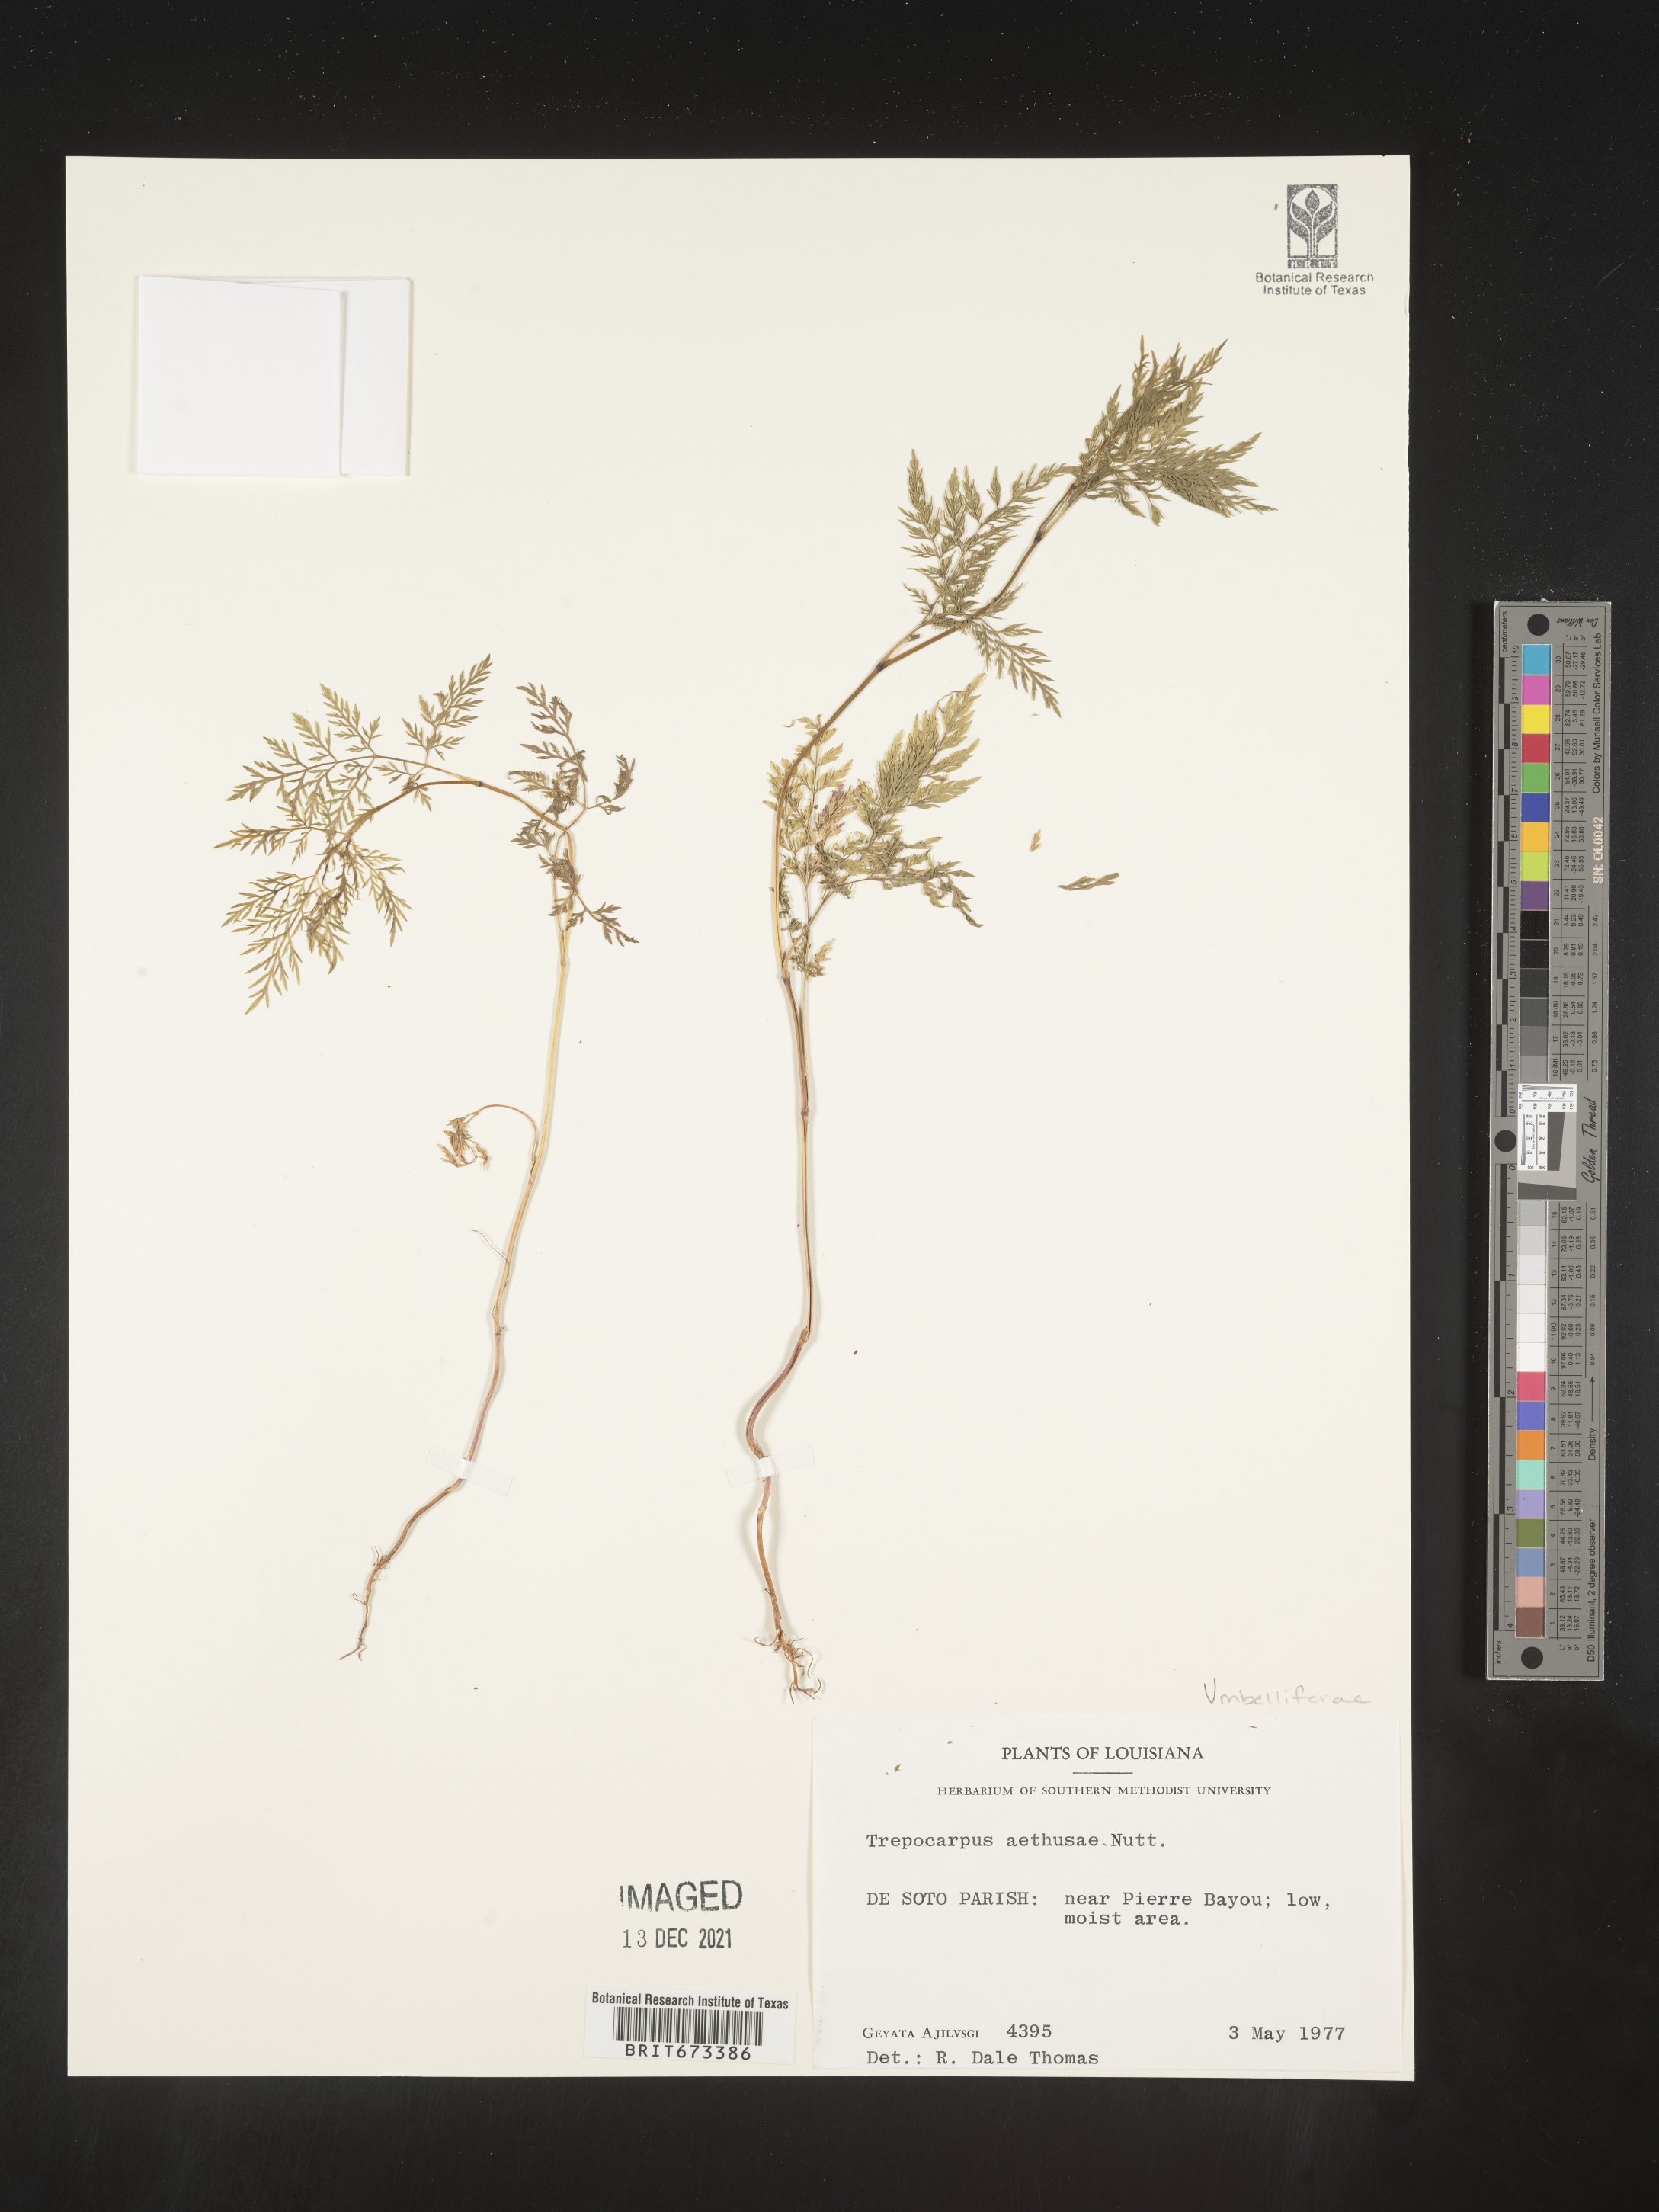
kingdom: Plantae
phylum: Tracheophyta
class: Magnoliopsida
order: Apiales
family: Apiaceae
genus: Trepocarpus
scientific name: Trepocarpus aethusae
